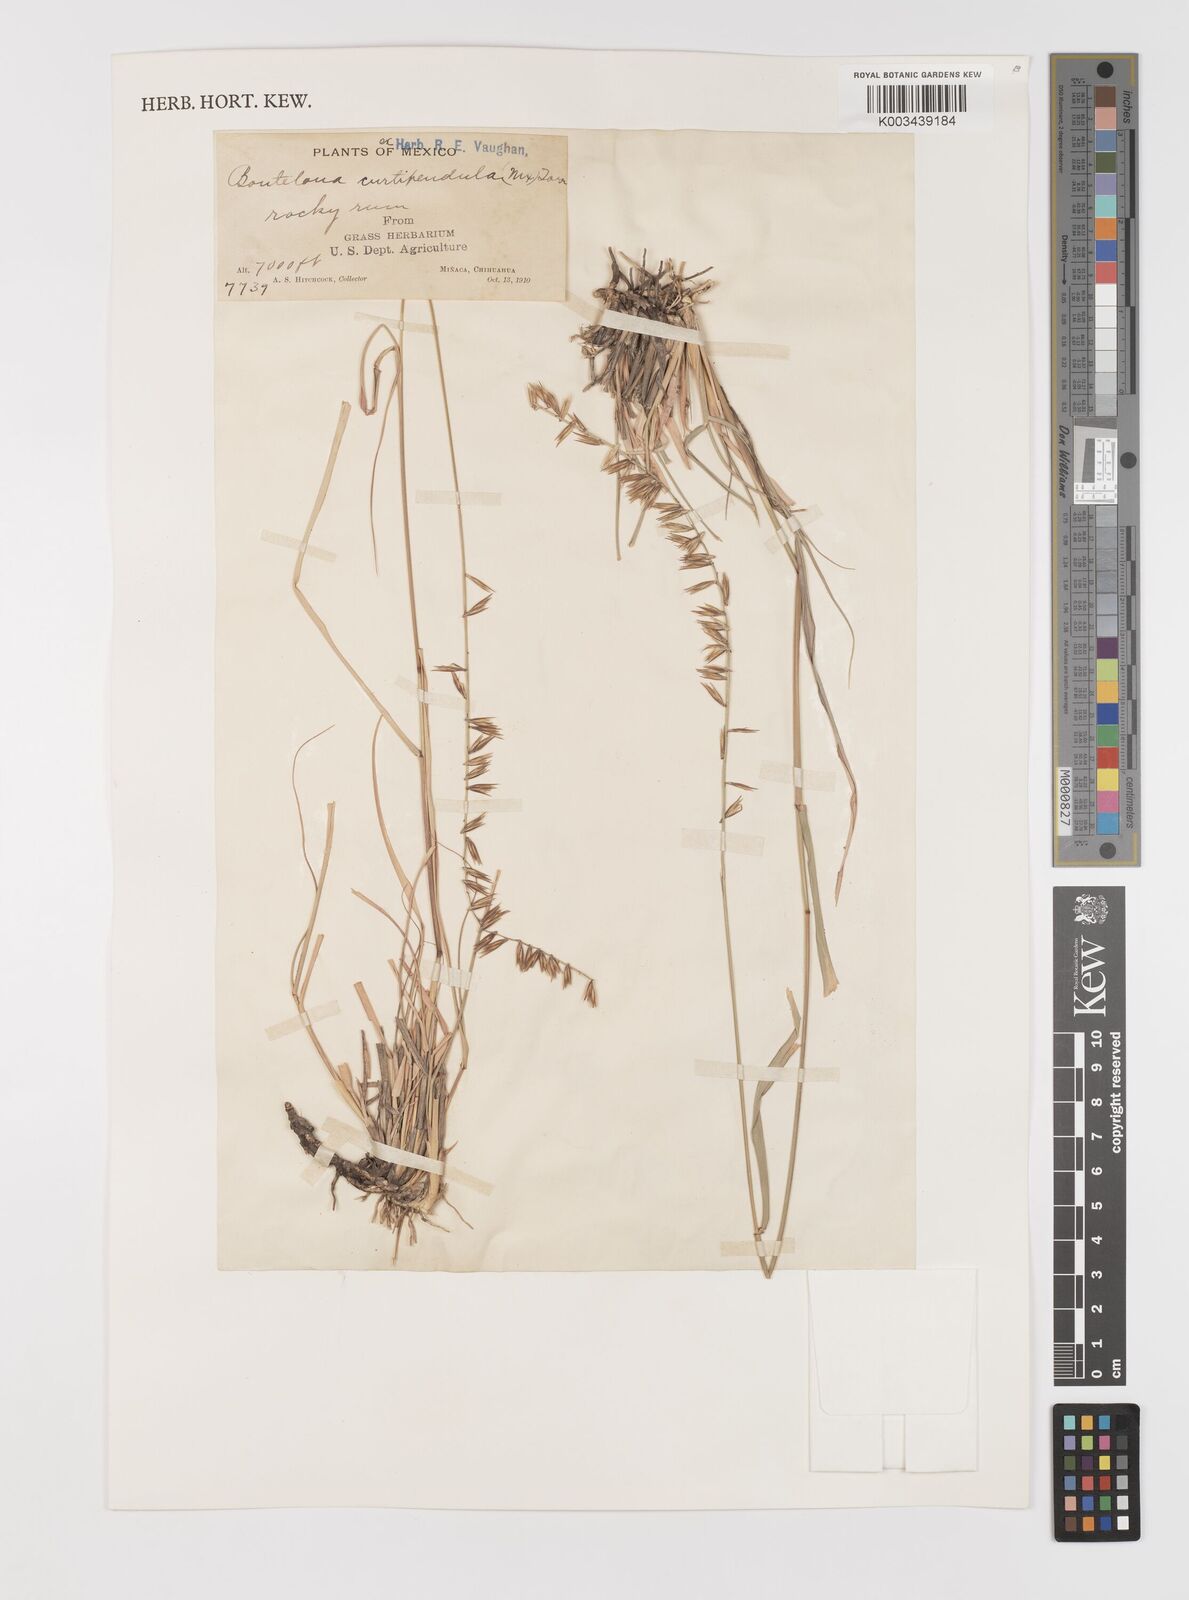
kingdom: Plantae
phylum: Tracheophyta
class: Liliopsida
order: Poales
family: Poaceae
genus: Bouteloua
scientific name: Bouteloua curtipendula
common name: Side-oats grama
